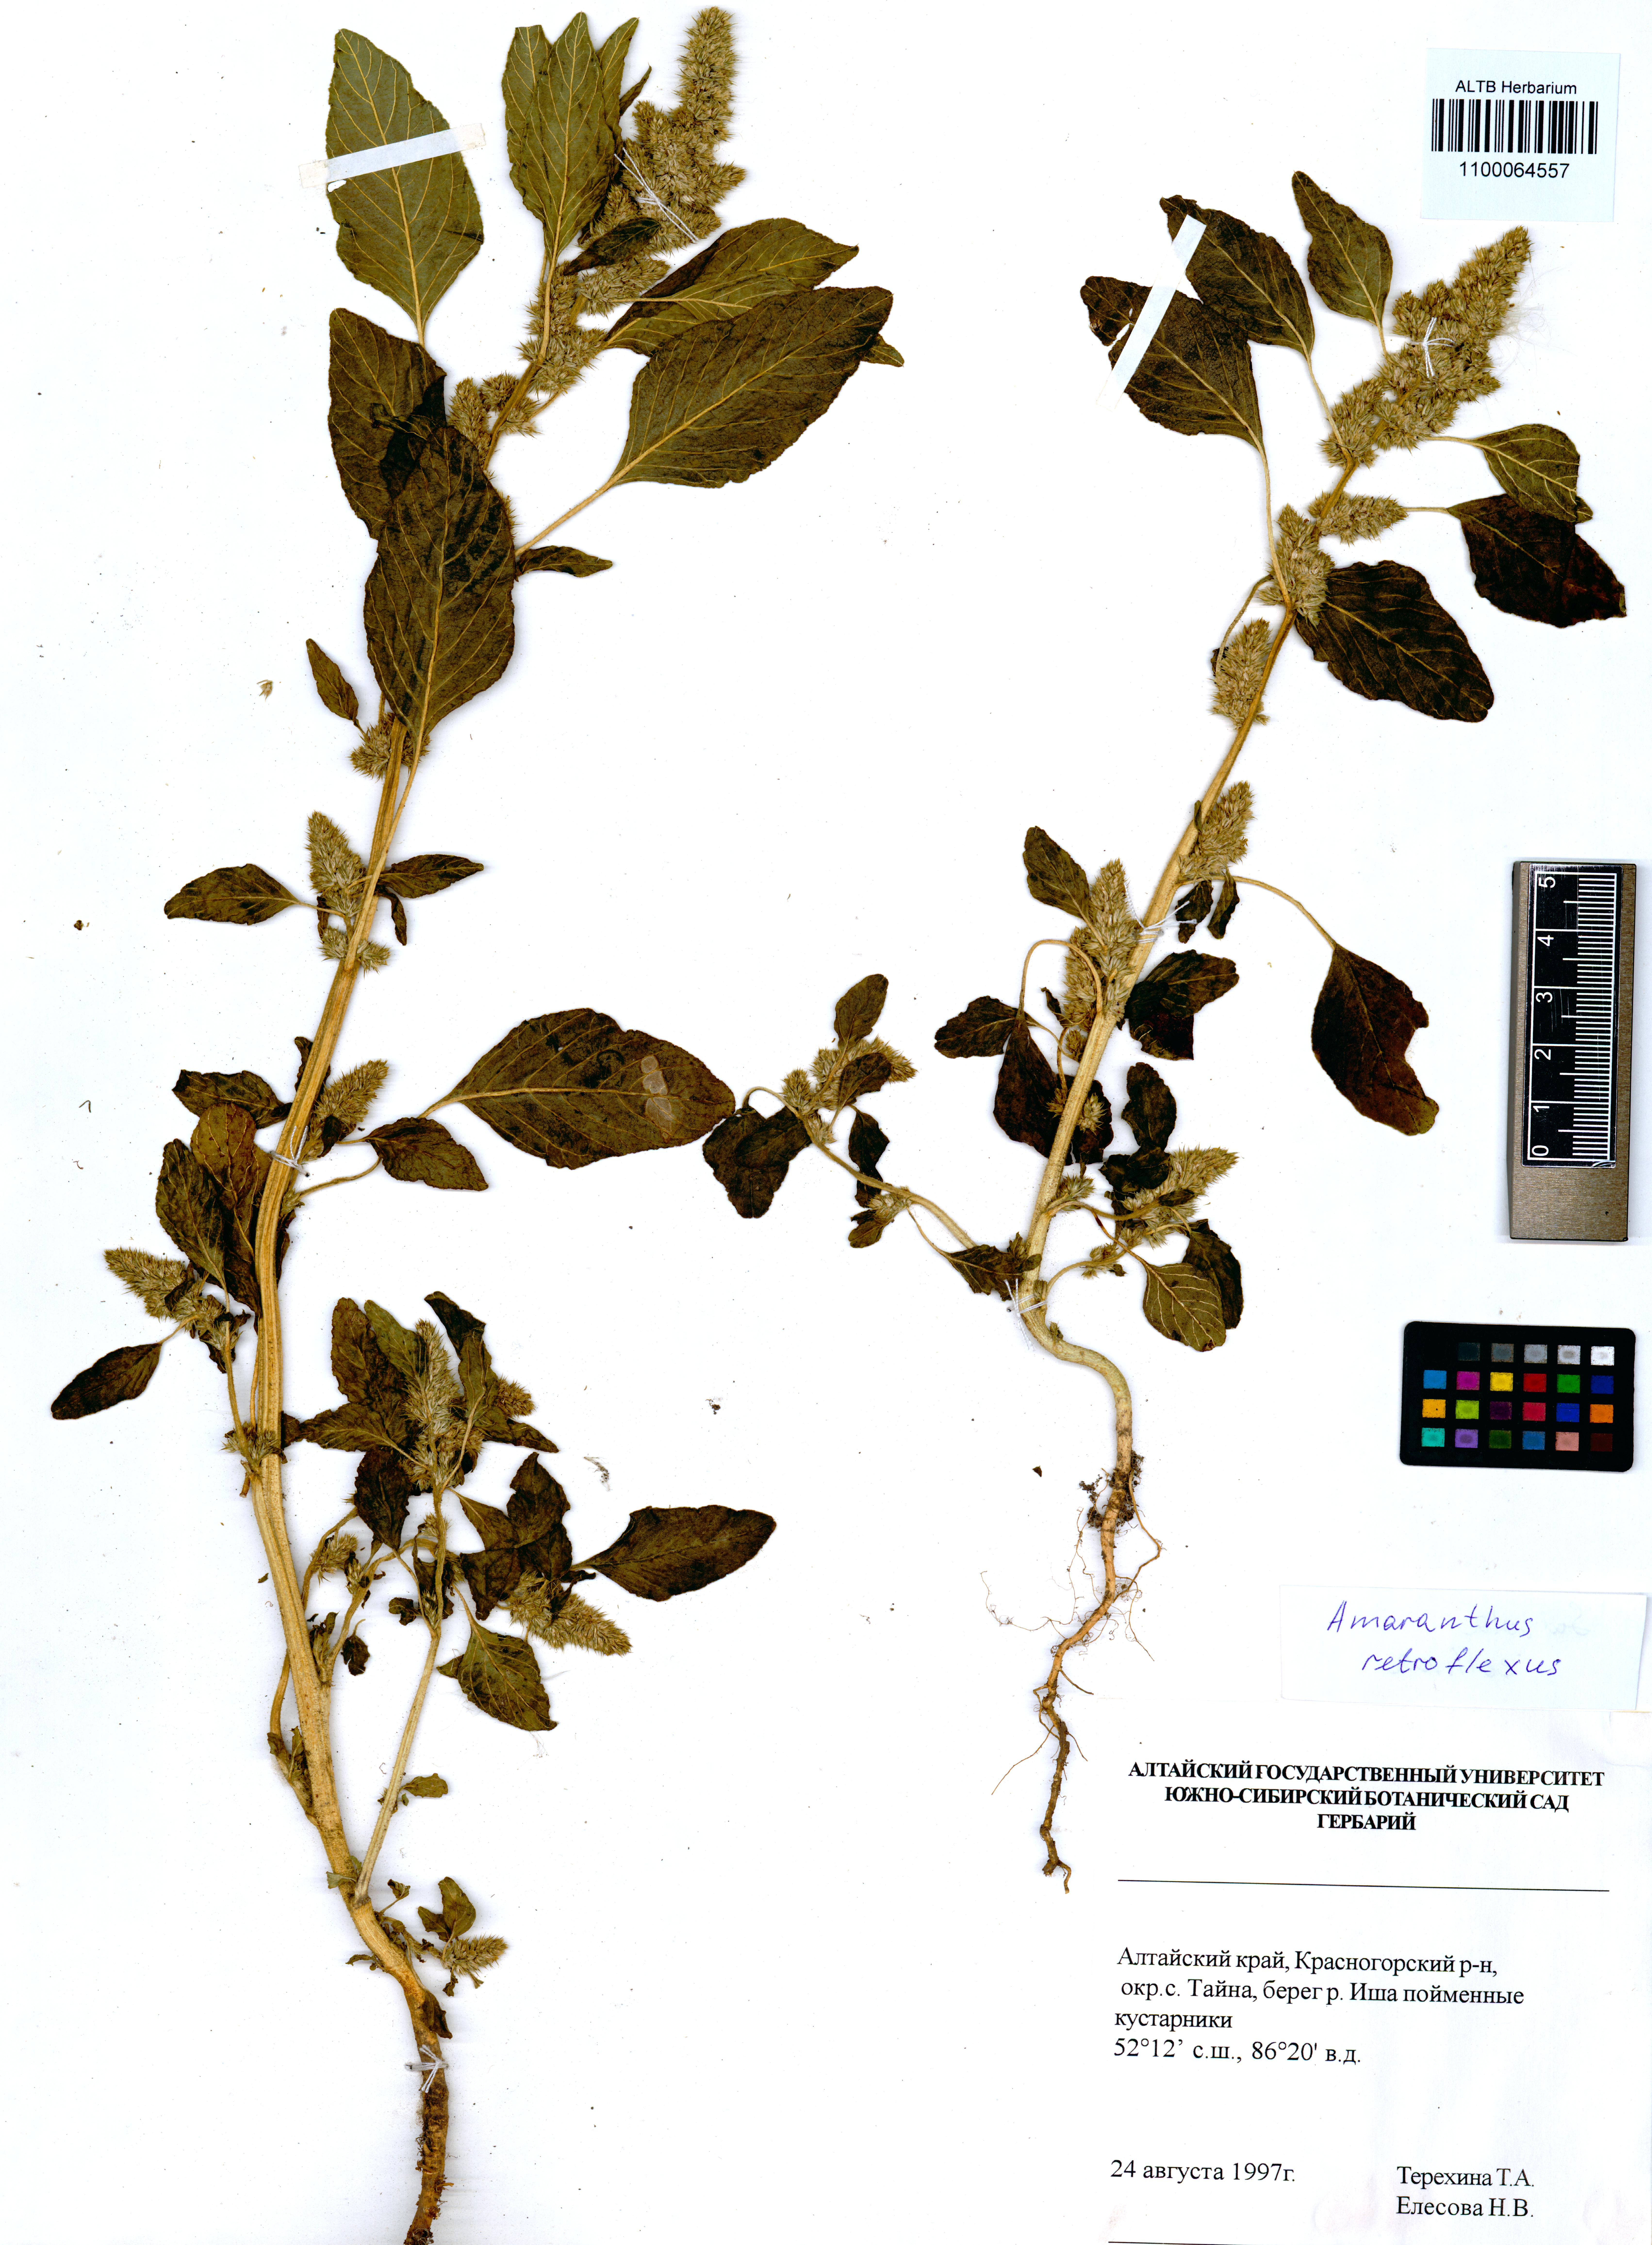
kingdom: Plantae
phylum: Tracheophyta
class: Magnoliopsida
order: Caryophyllales
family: Amaranthaceae
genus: Amaranthus
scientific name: Amaranthus retroflexus
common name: Redroot amaranth
